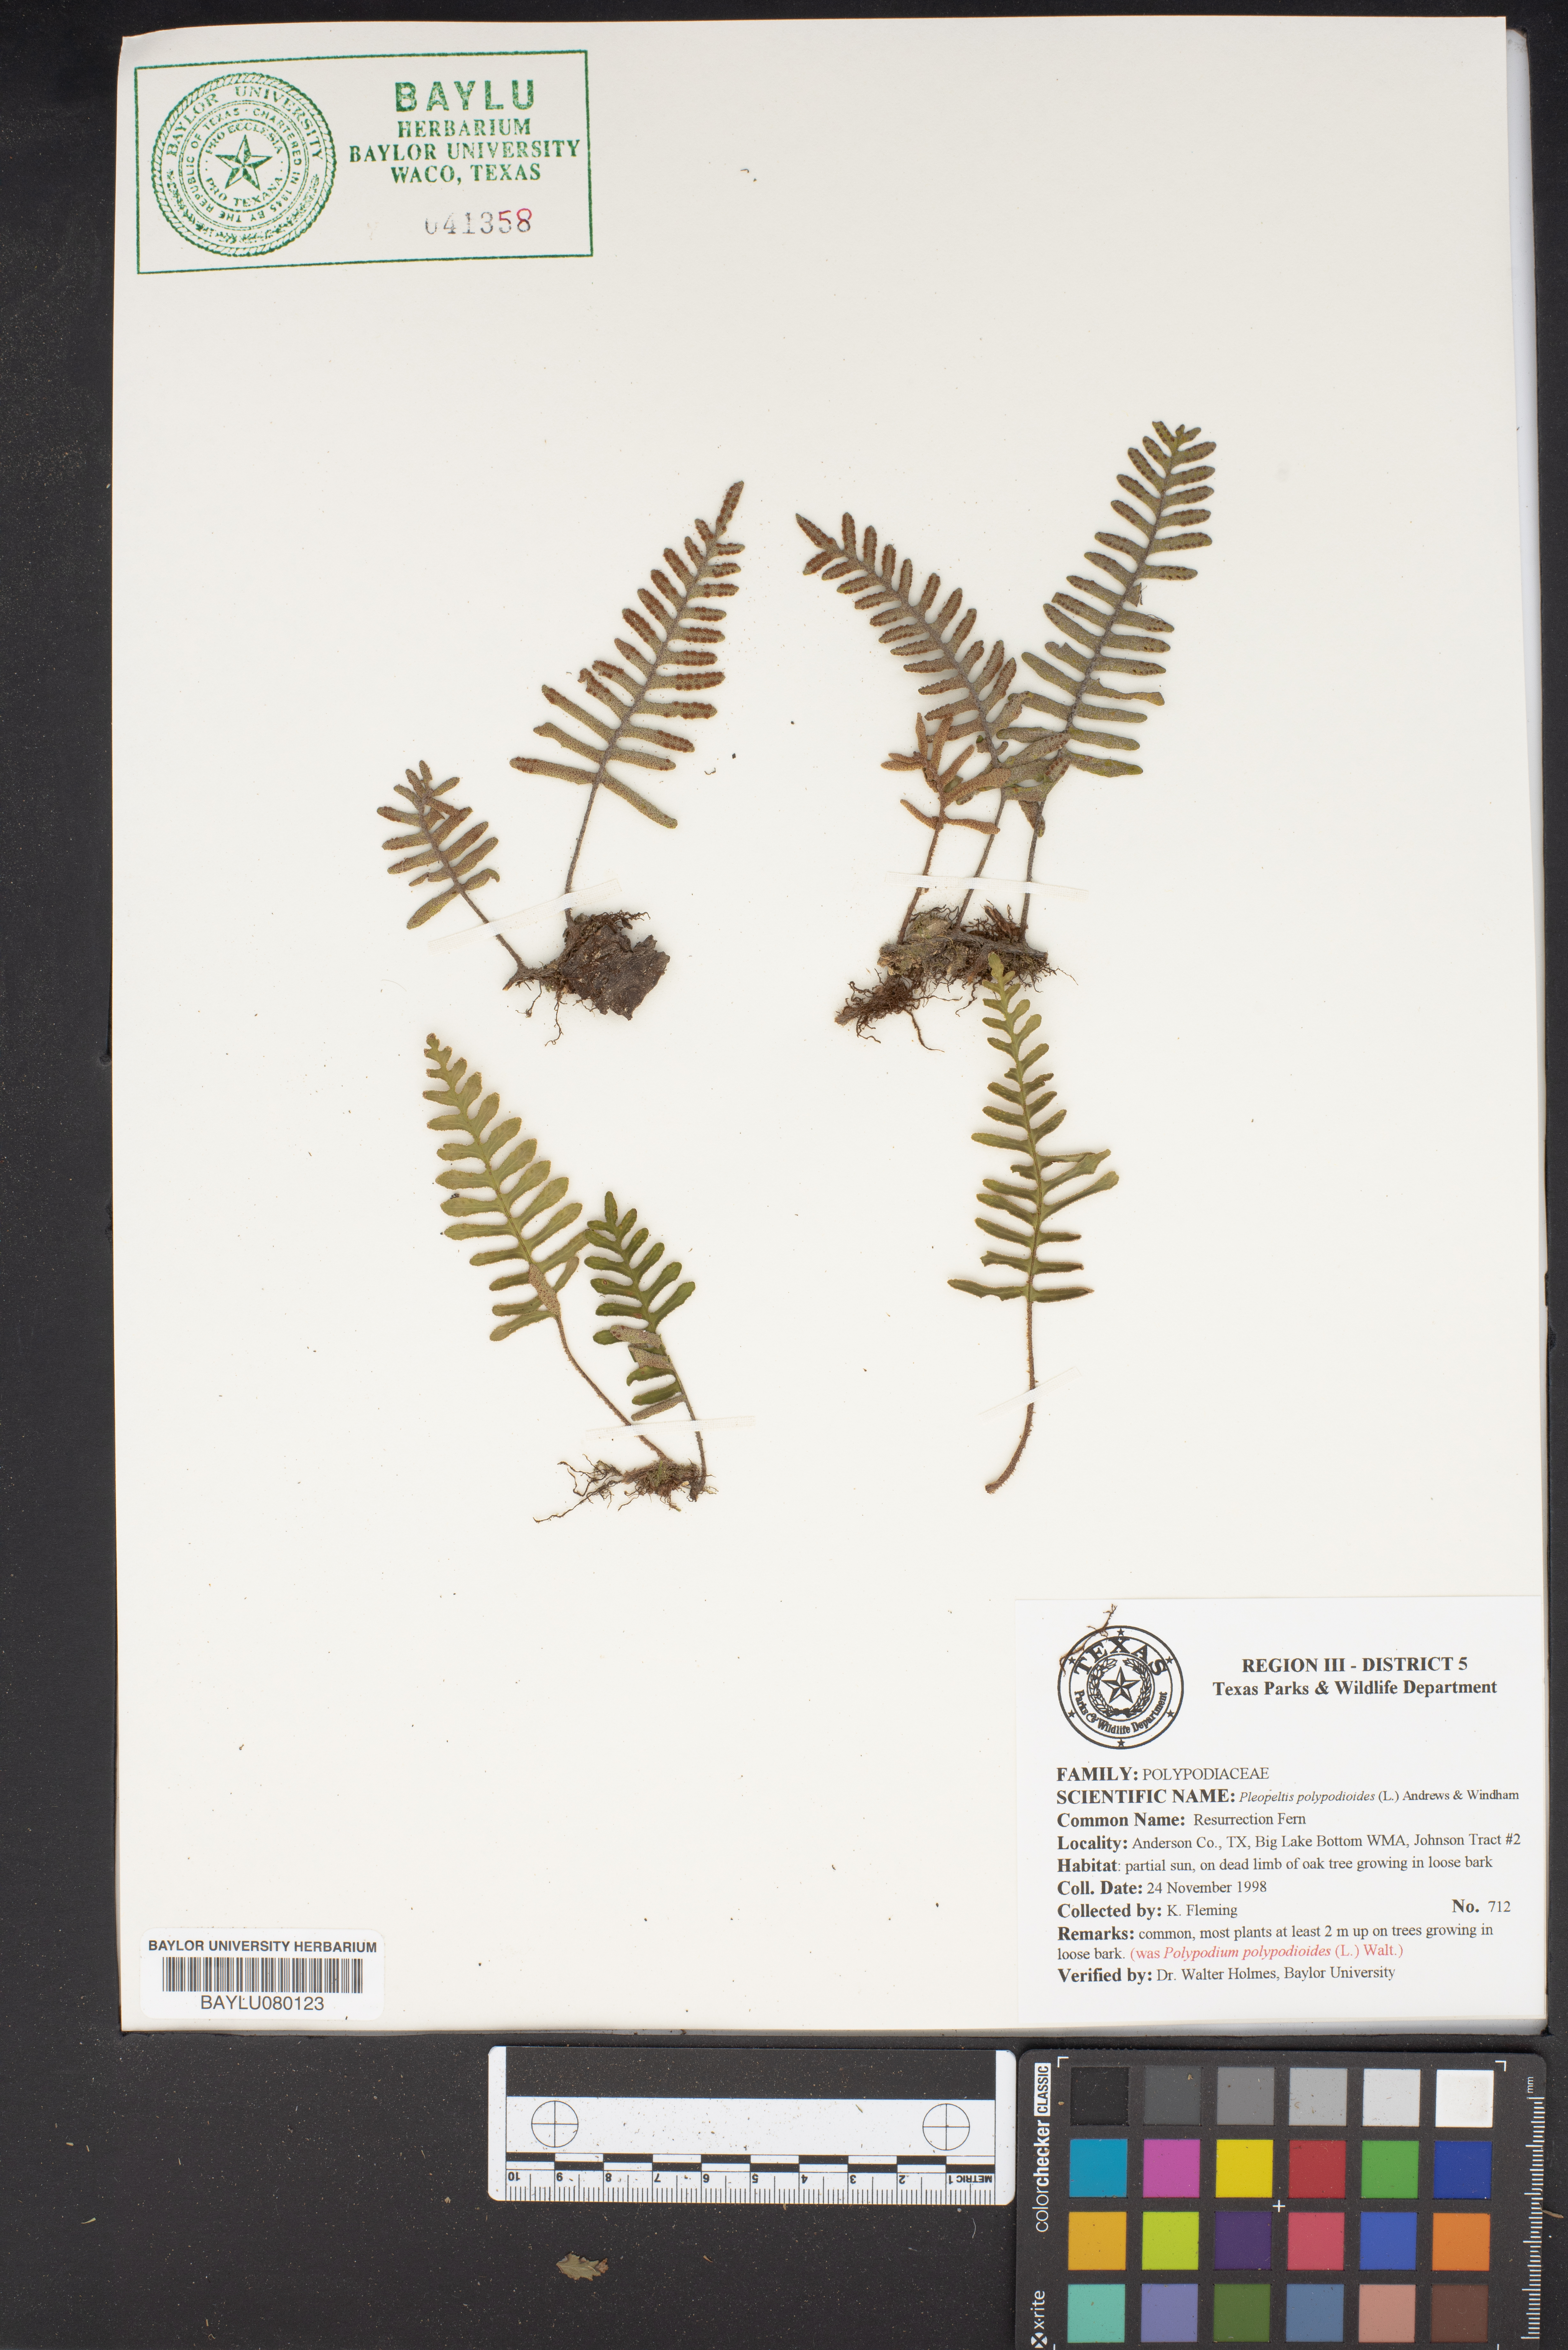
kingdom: Plantae
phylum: Tracheophyta
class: Polypodiopsida
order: Polypodiales
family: Polypodiaceae
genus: Pleopeltis
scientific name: Pleopeltis polypodioides
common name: Resurrection fern
